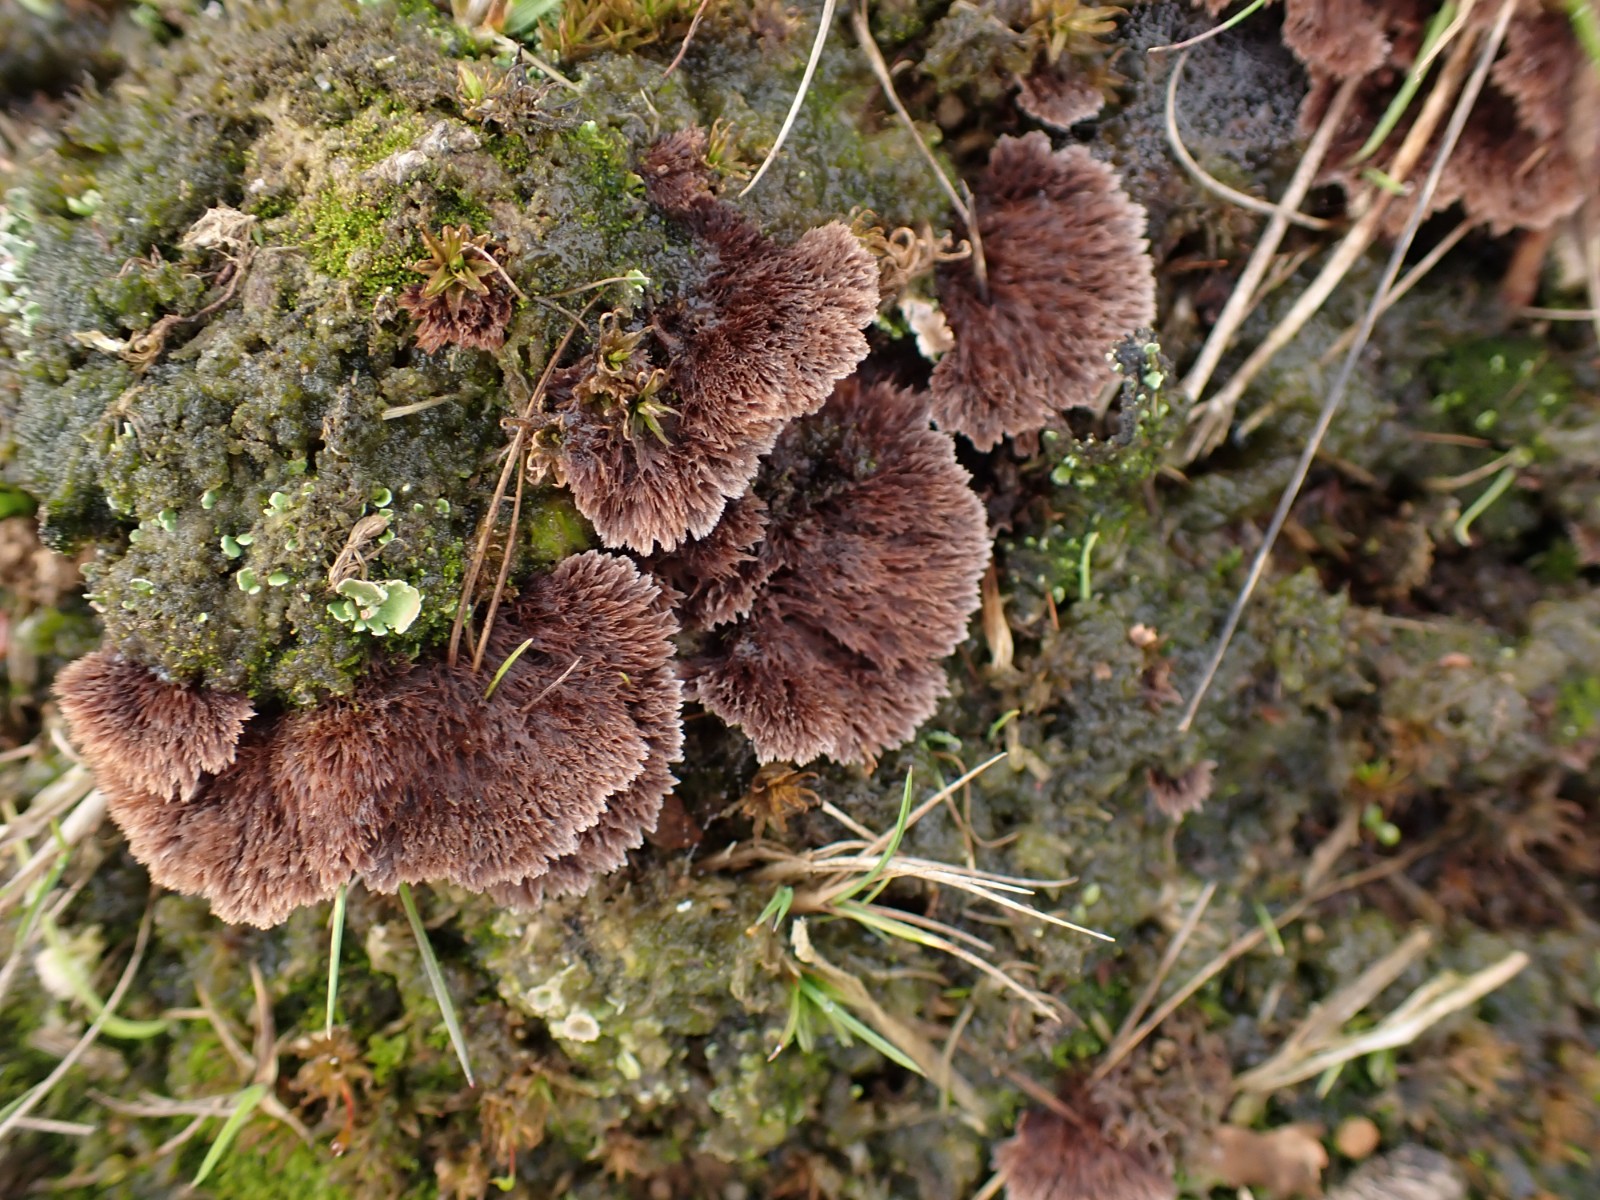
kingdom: Fungi
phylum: Basidiomycota
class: Agaricomycetes
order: Thelephorales
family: Thelephoraceae
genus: Thelephora
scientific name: Thelephora terrestris
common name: fliget frynsesvamp
